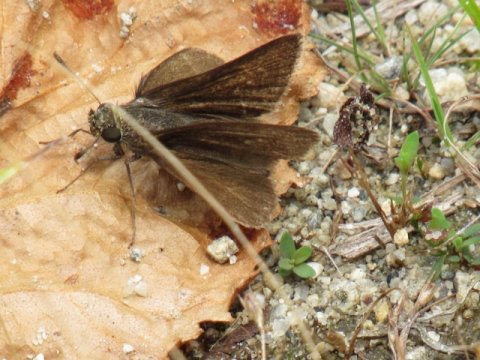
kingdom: Animalia
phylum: Arthropoda
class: Insecta
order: Lepidoptera
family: Hesperiidae
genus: Euphyes
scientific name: Euphyes vestris
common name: Dun Skipper
